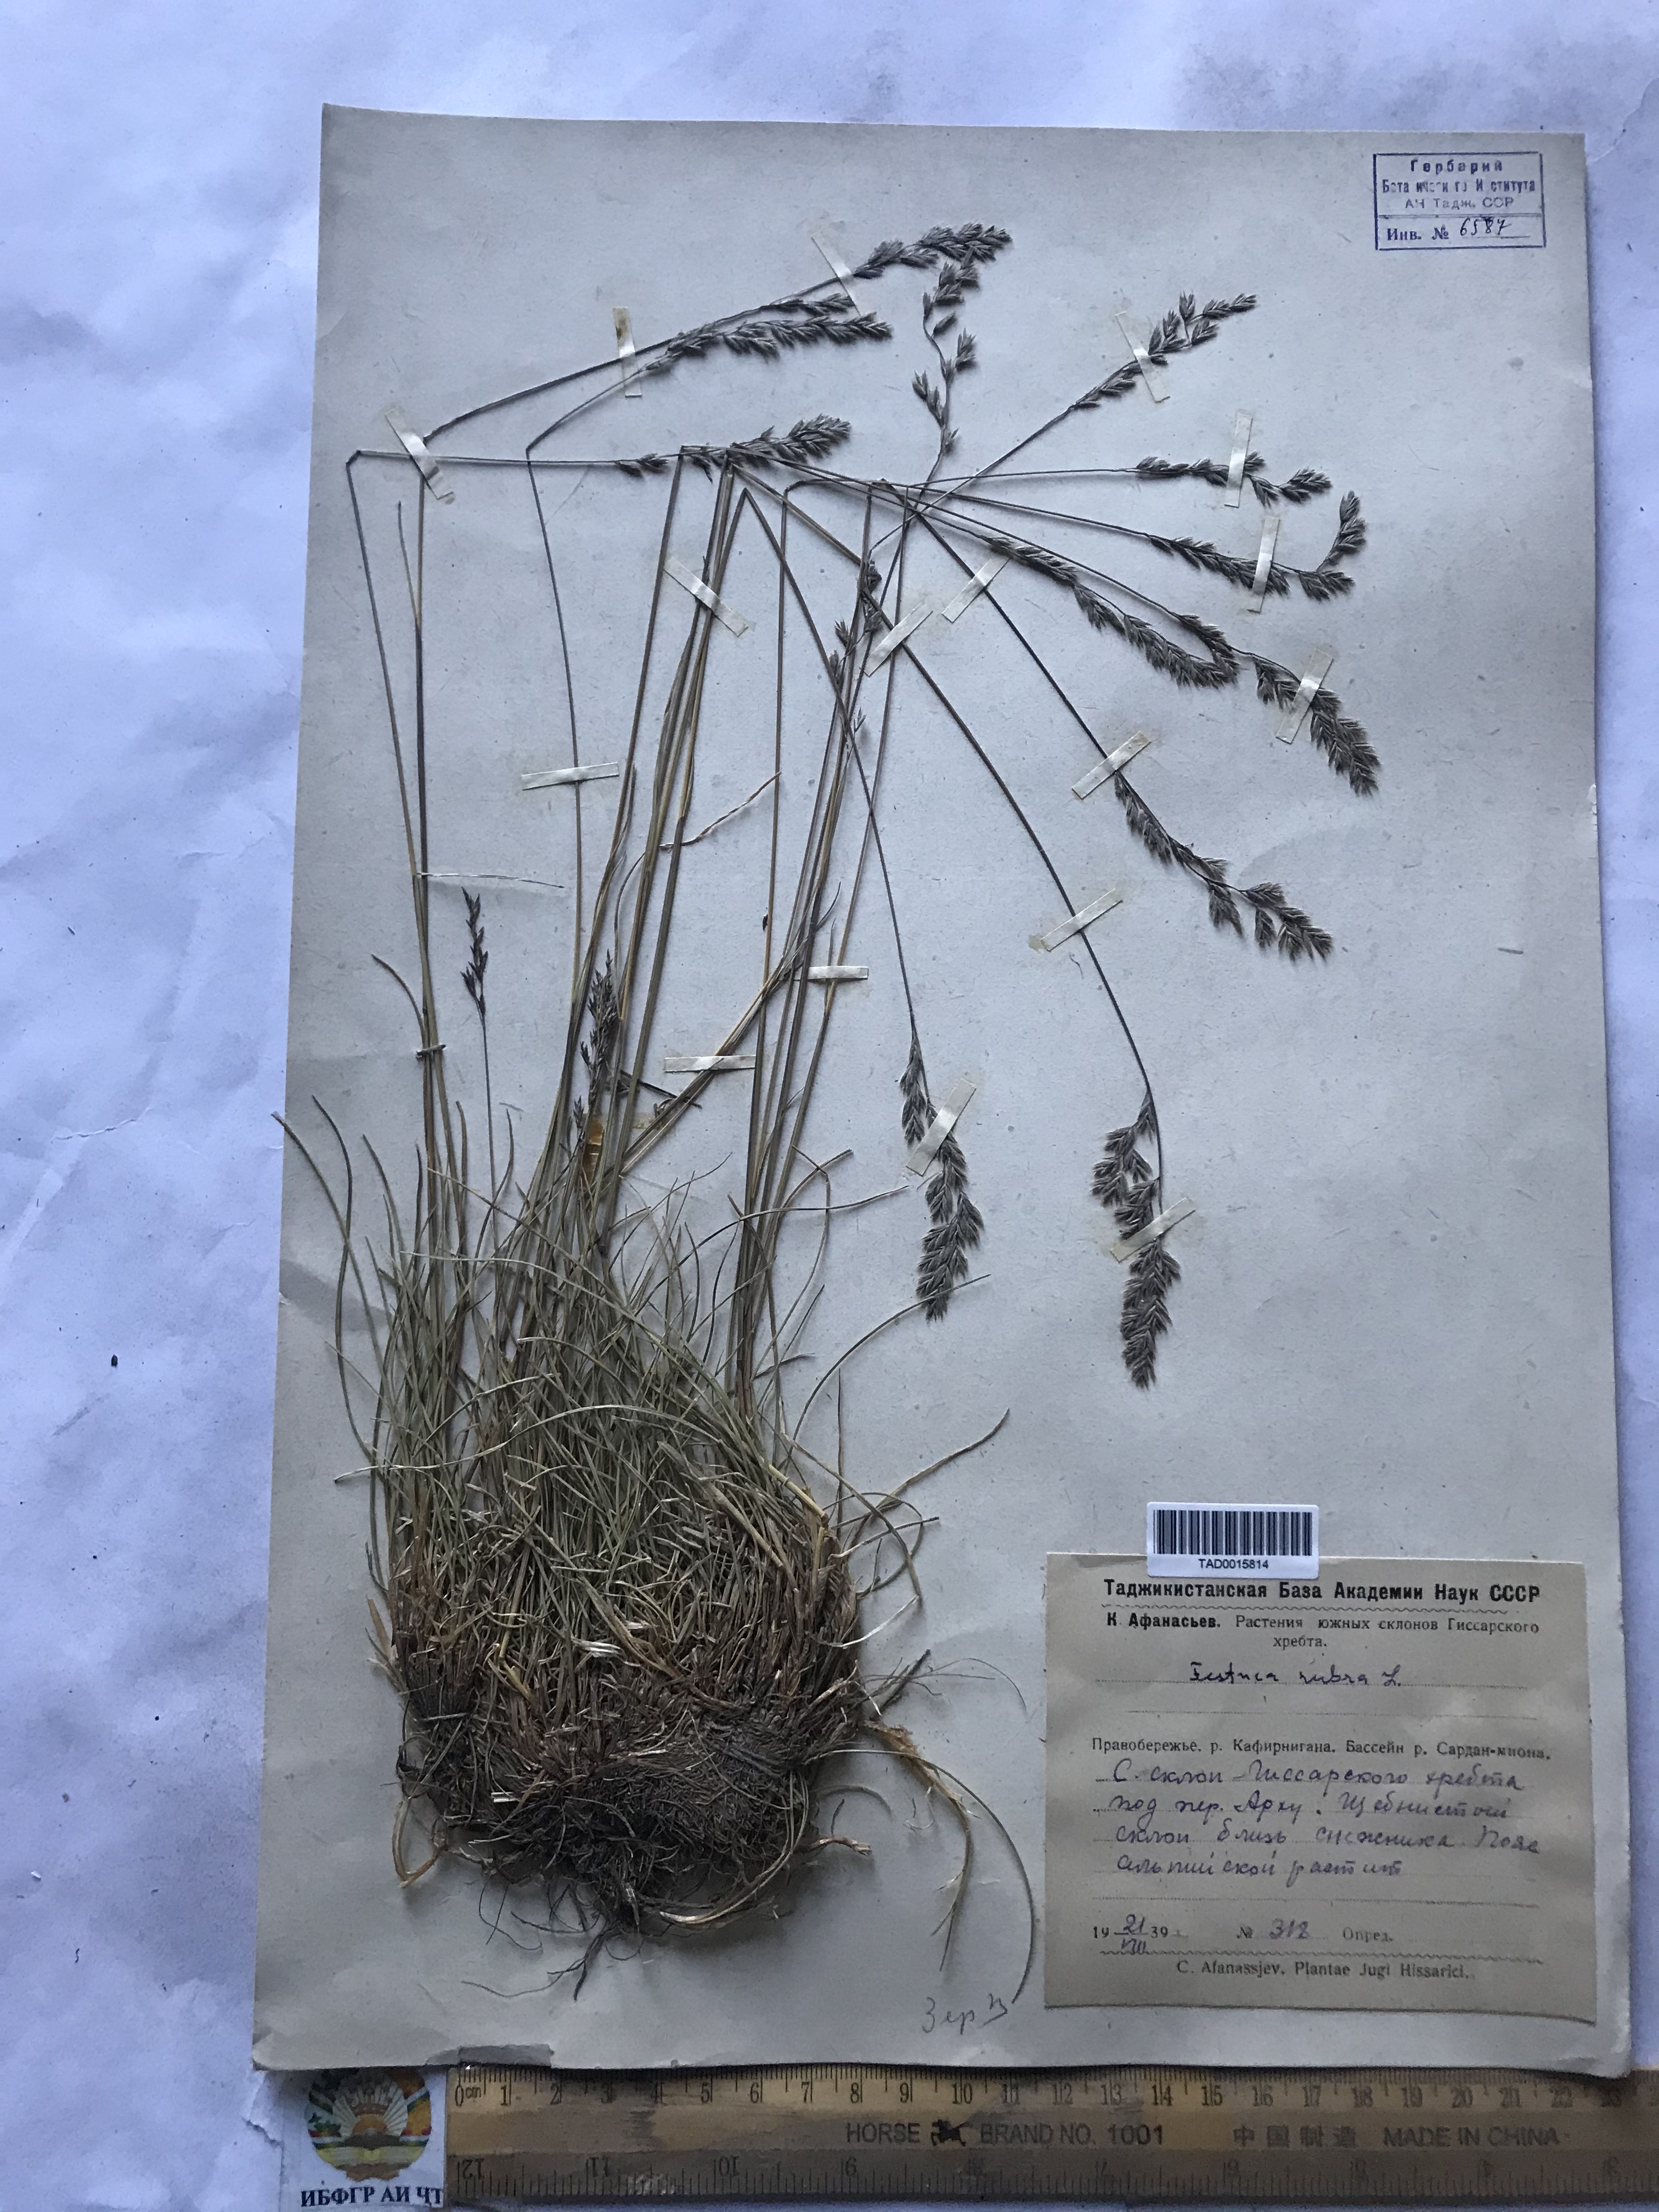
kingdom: Plantae
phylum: Tracheophyta
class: Liliopsida
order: Poales
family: Poaceae
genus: Festuca
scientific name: Festuca rubra
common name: Red fescue
